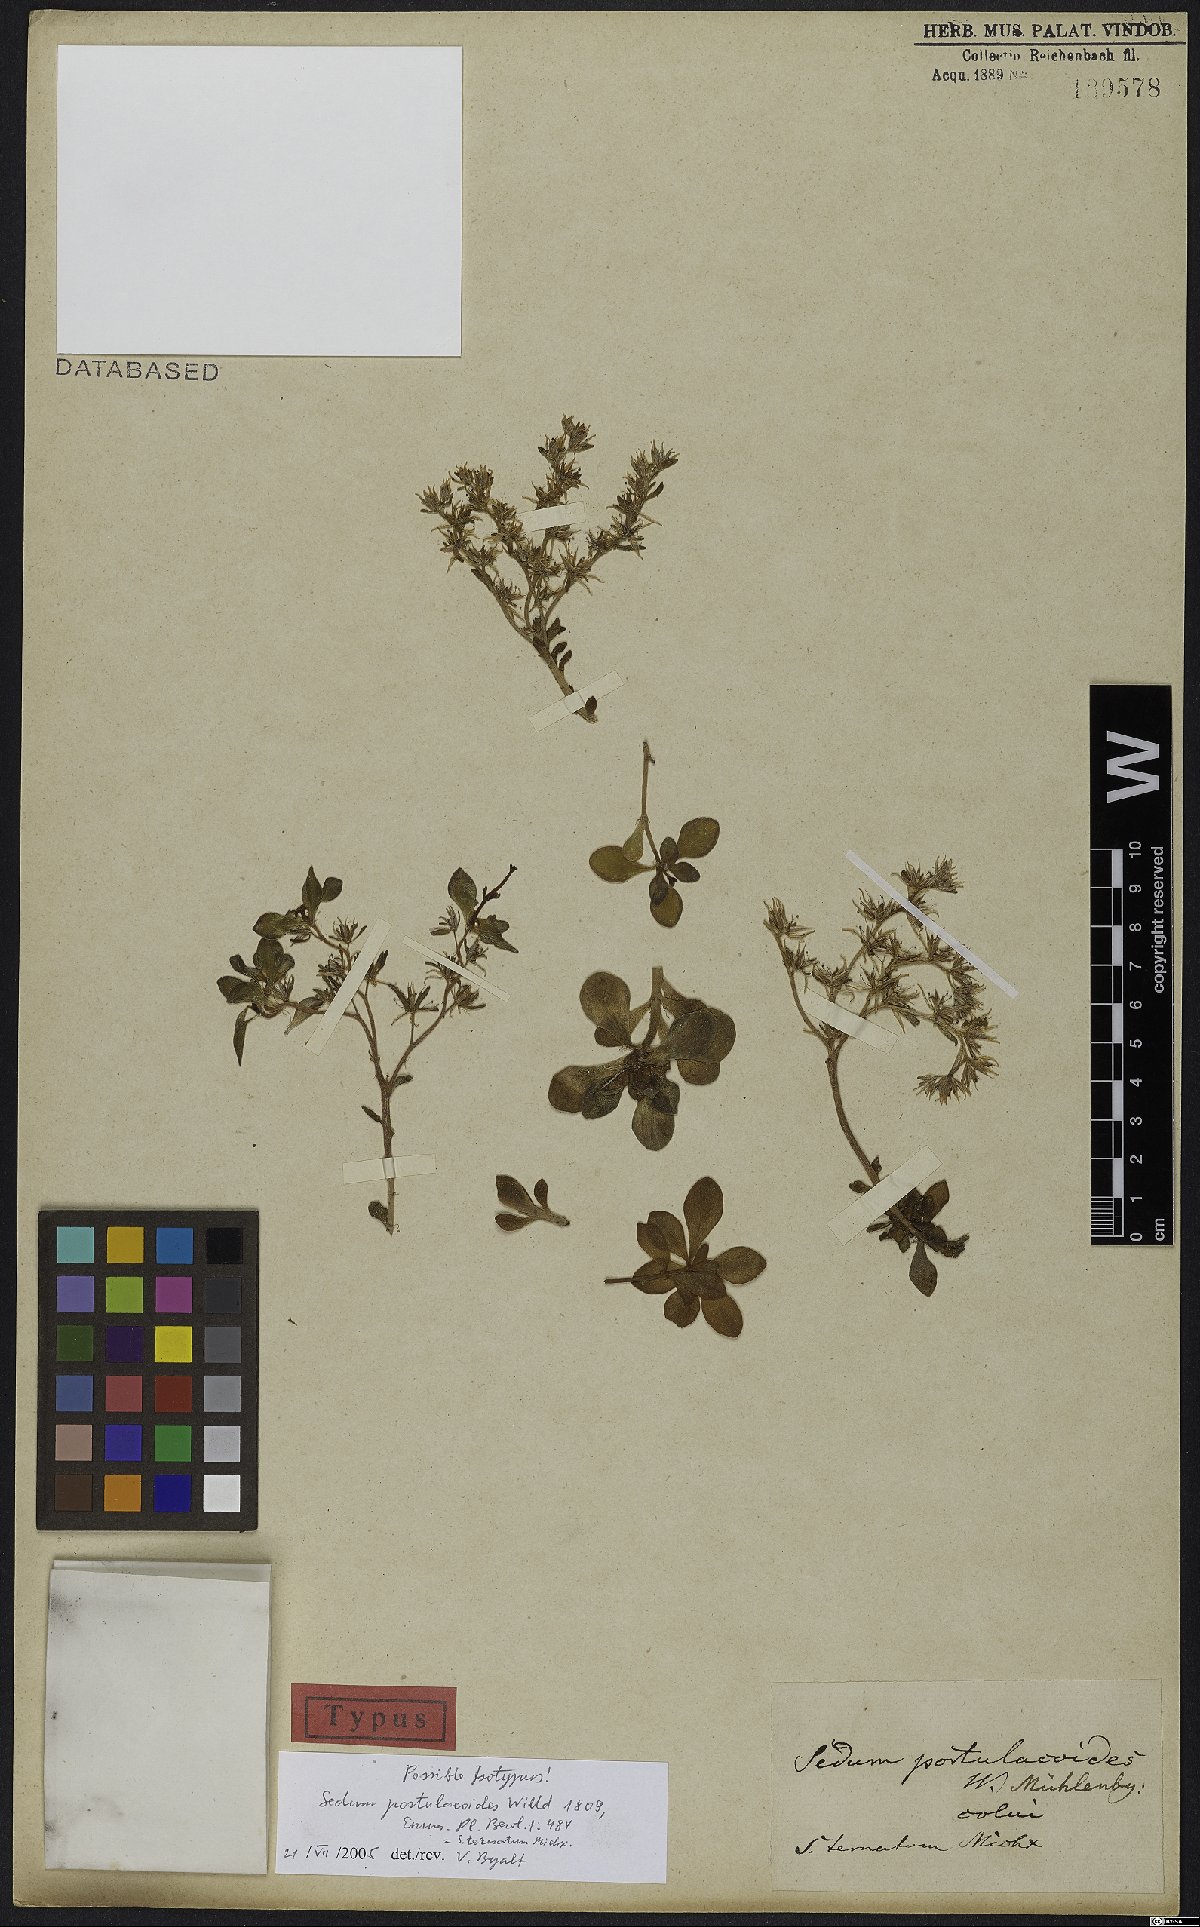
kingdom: Plantae
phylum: Tracheophyta
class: Magnoliopsida
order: Saxifragales
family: Crassulaceae
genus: Sedum
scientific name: Sedum ternatum
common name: Wild stonecrop
